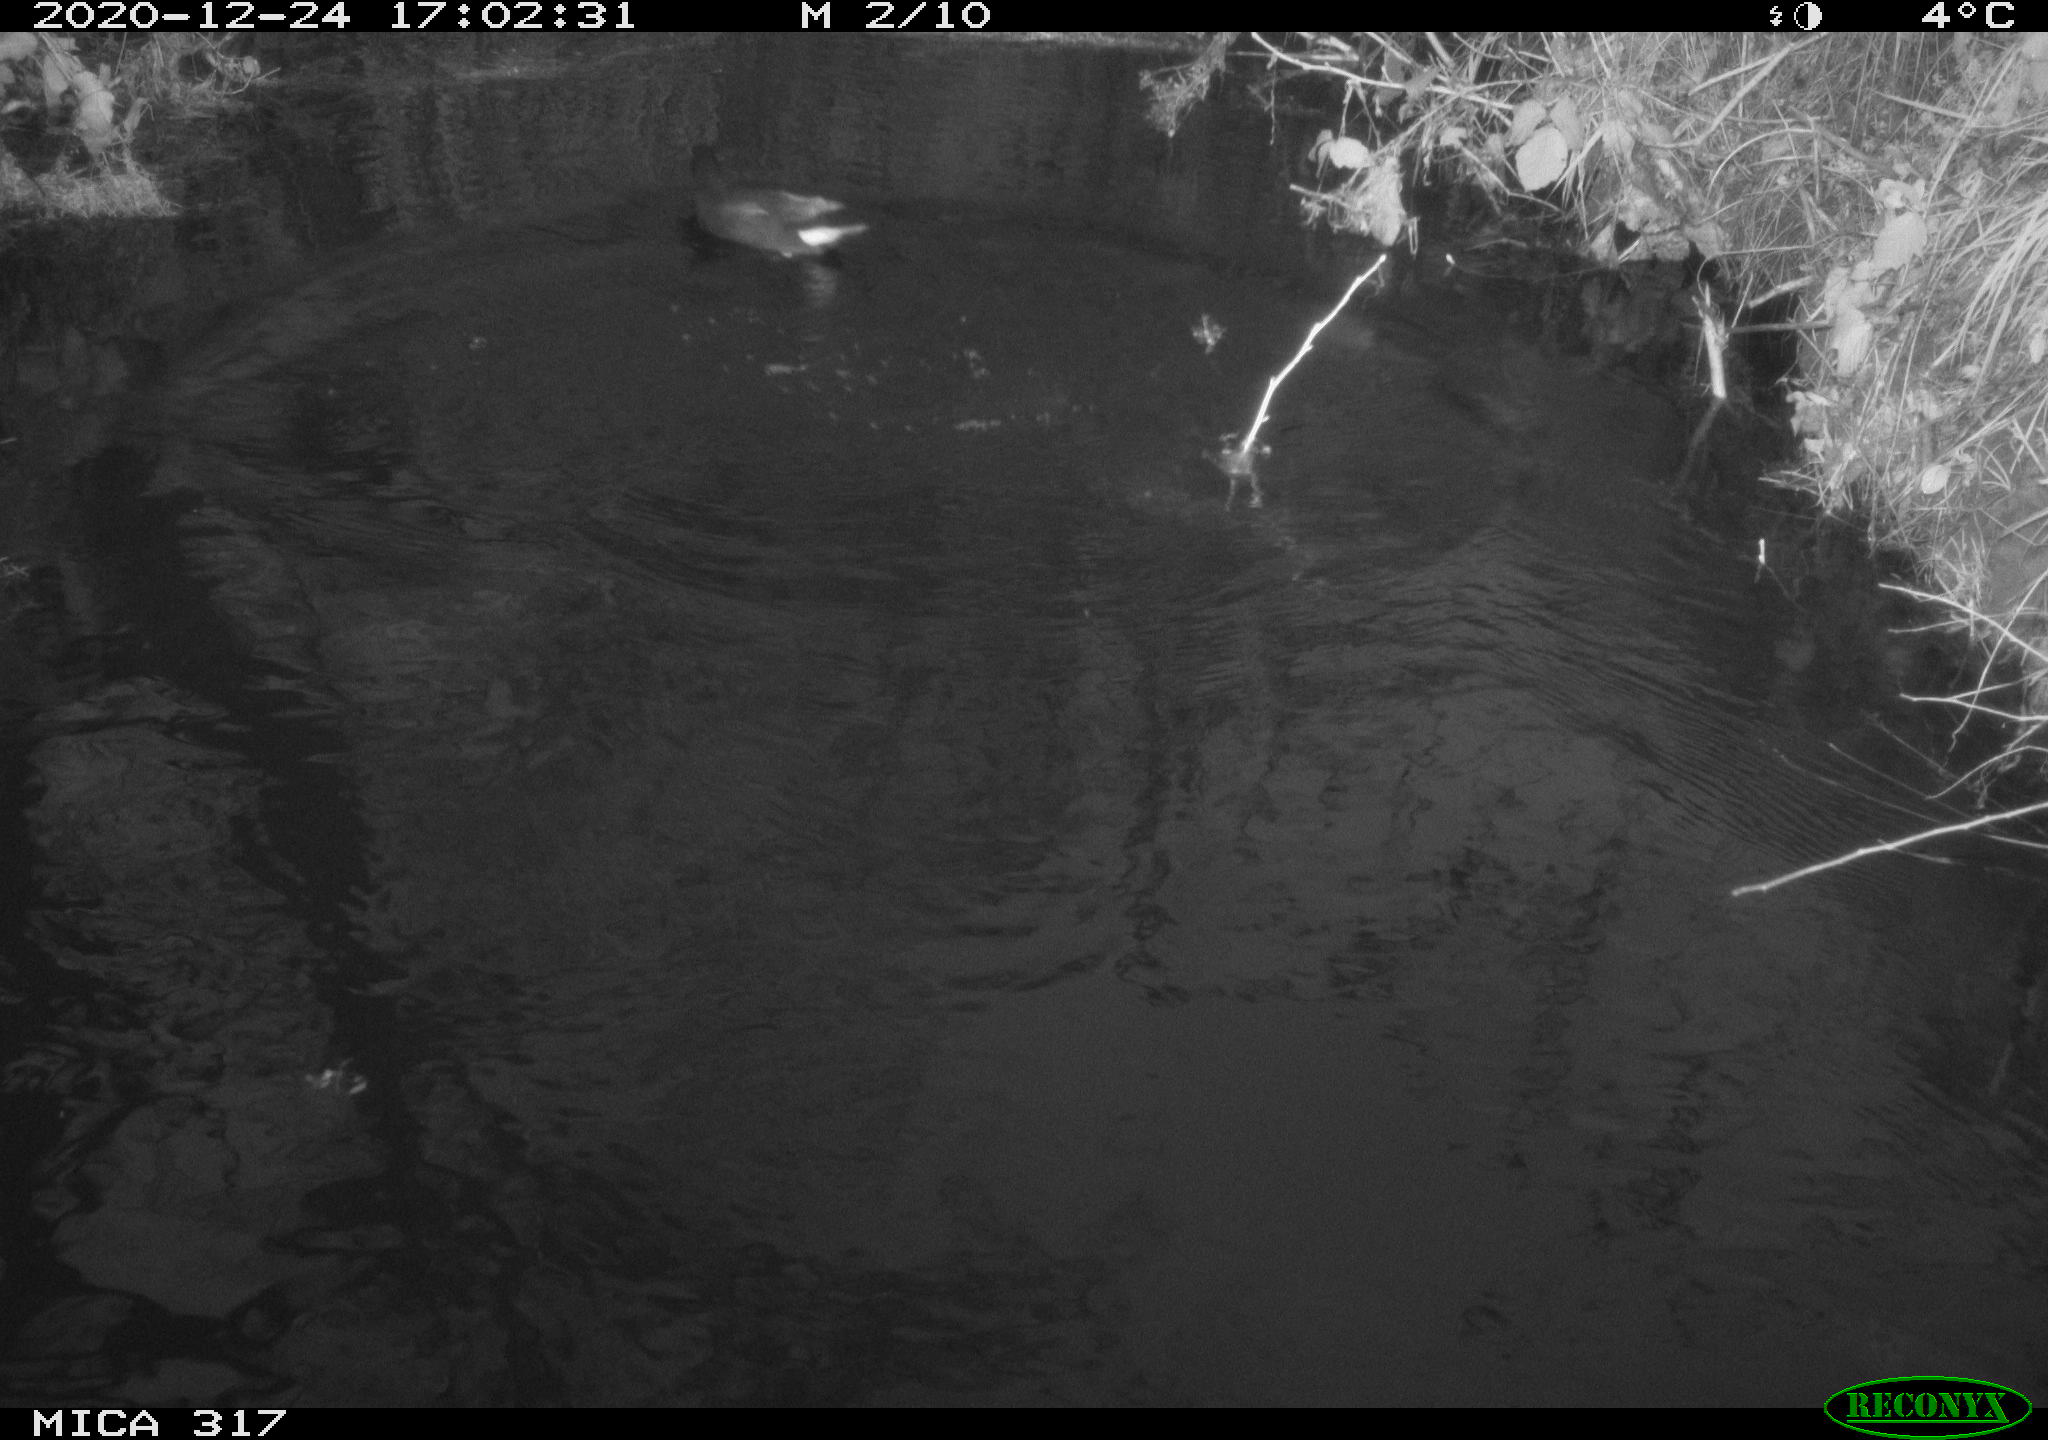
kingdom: Animalia
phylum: Chordata
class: Aves
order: Gruiformes
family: Rallidae
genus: Gallinula
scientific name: Gallinula chloropus
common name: Common moorhen
